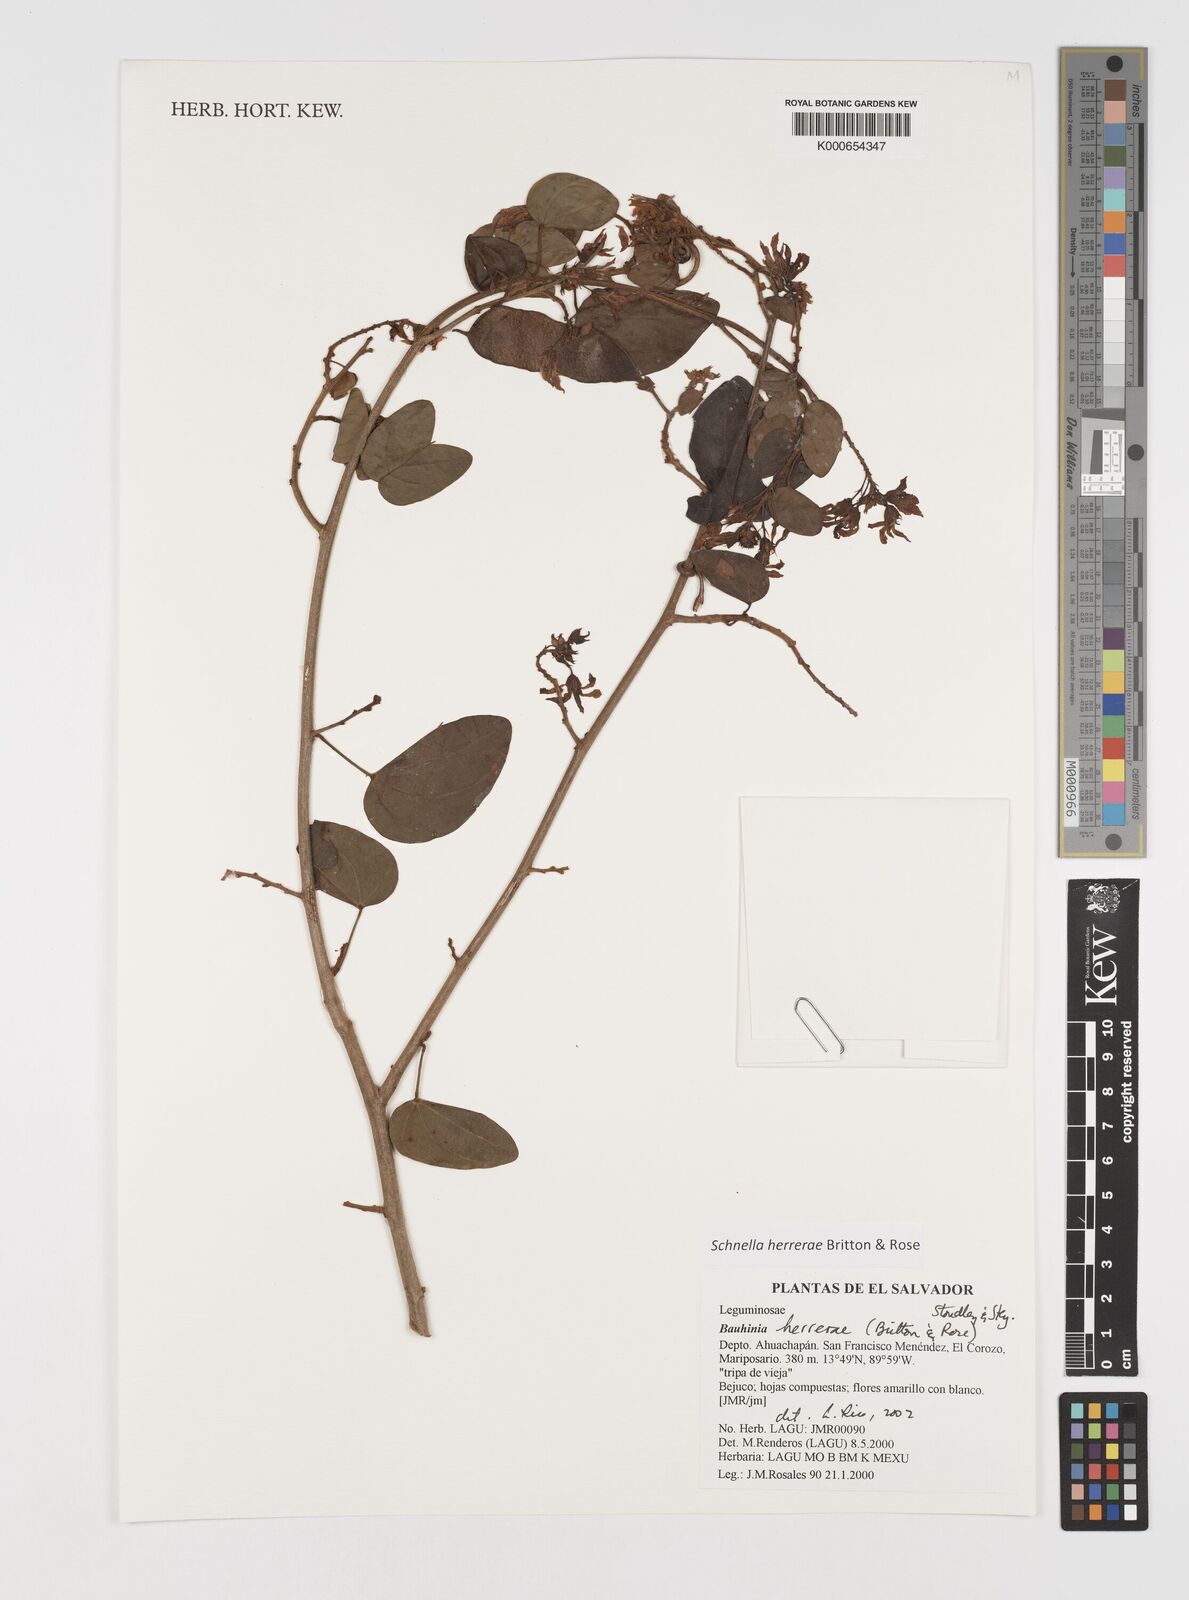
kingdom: Plantae
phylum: Tracheophyta
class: Magnoliopsida
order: Fabales
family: Fabaceae
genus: Schnella
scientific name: Schnella herrerae
